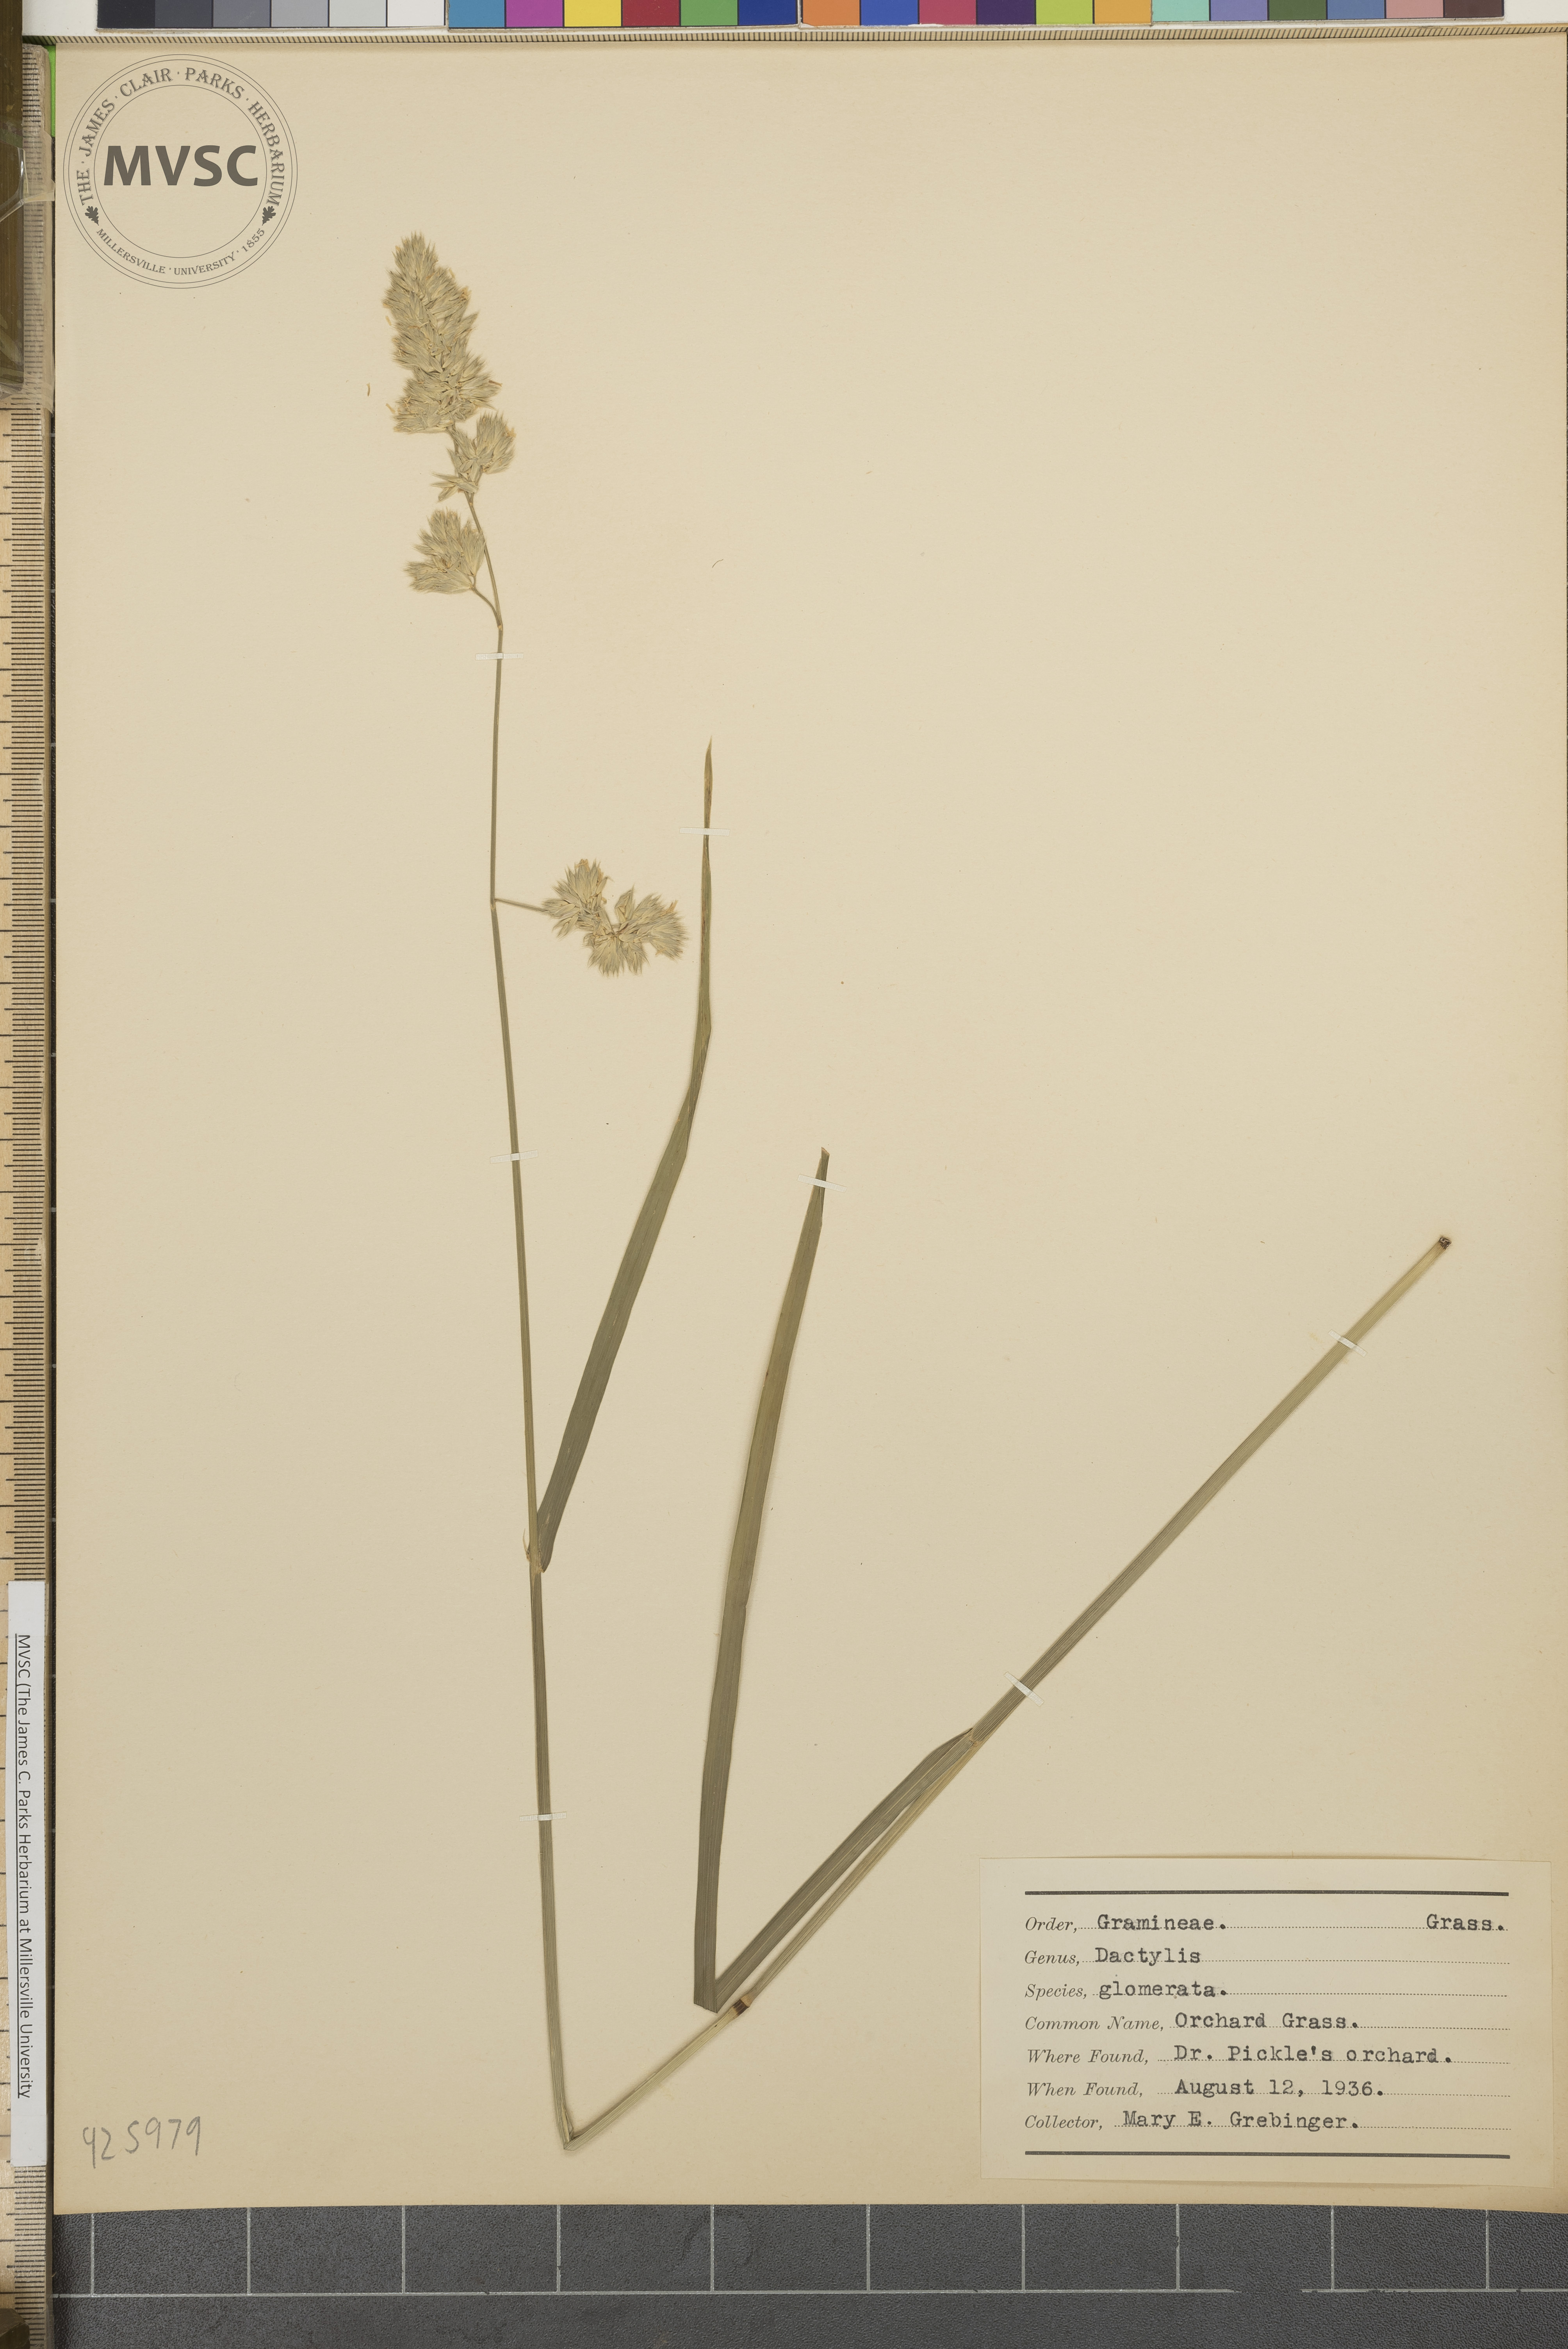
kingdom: Plantae
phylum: Tracheophyta
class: Liliopsida
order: Poales
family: Poaceae
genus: Dactylis
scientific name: Dactylis glomerata
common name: Orchard grass
